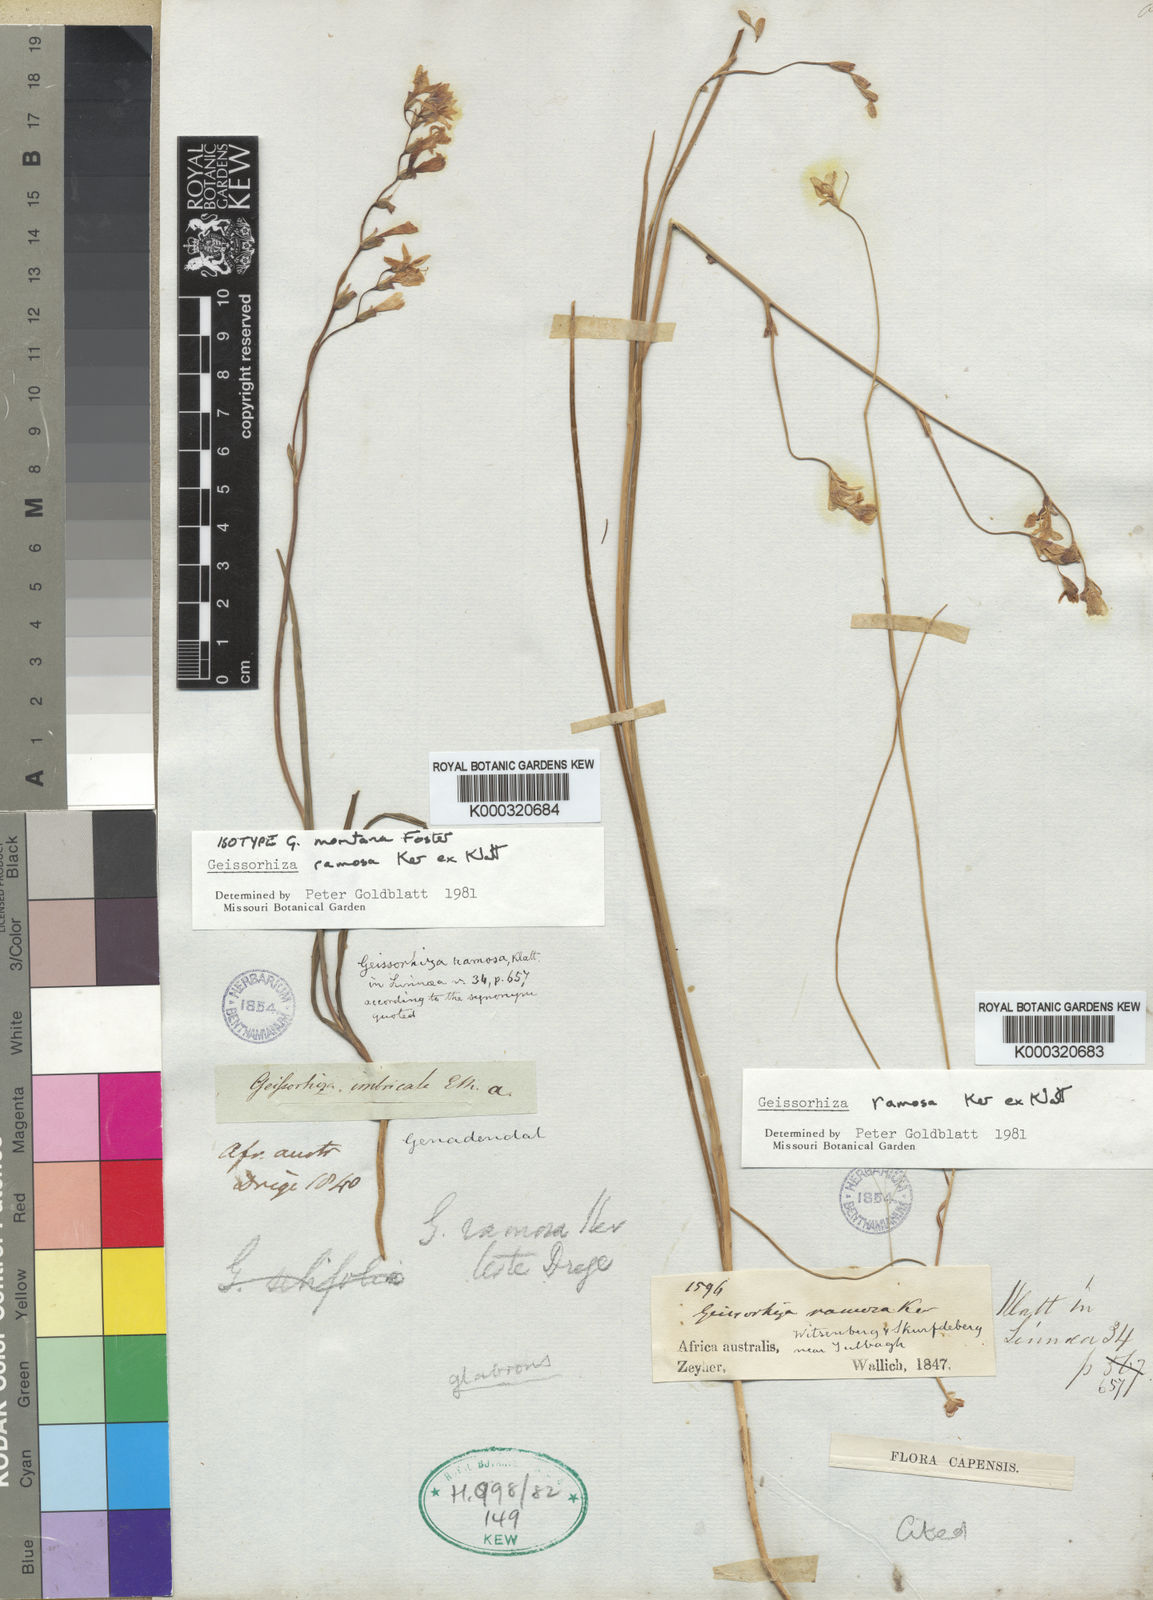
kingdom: Plantae
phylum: Tracheophyta
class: Liliopsida
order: Asparagales
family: Iridaceae
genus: Geissorhiza
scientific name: Geissorhiza ramosa
